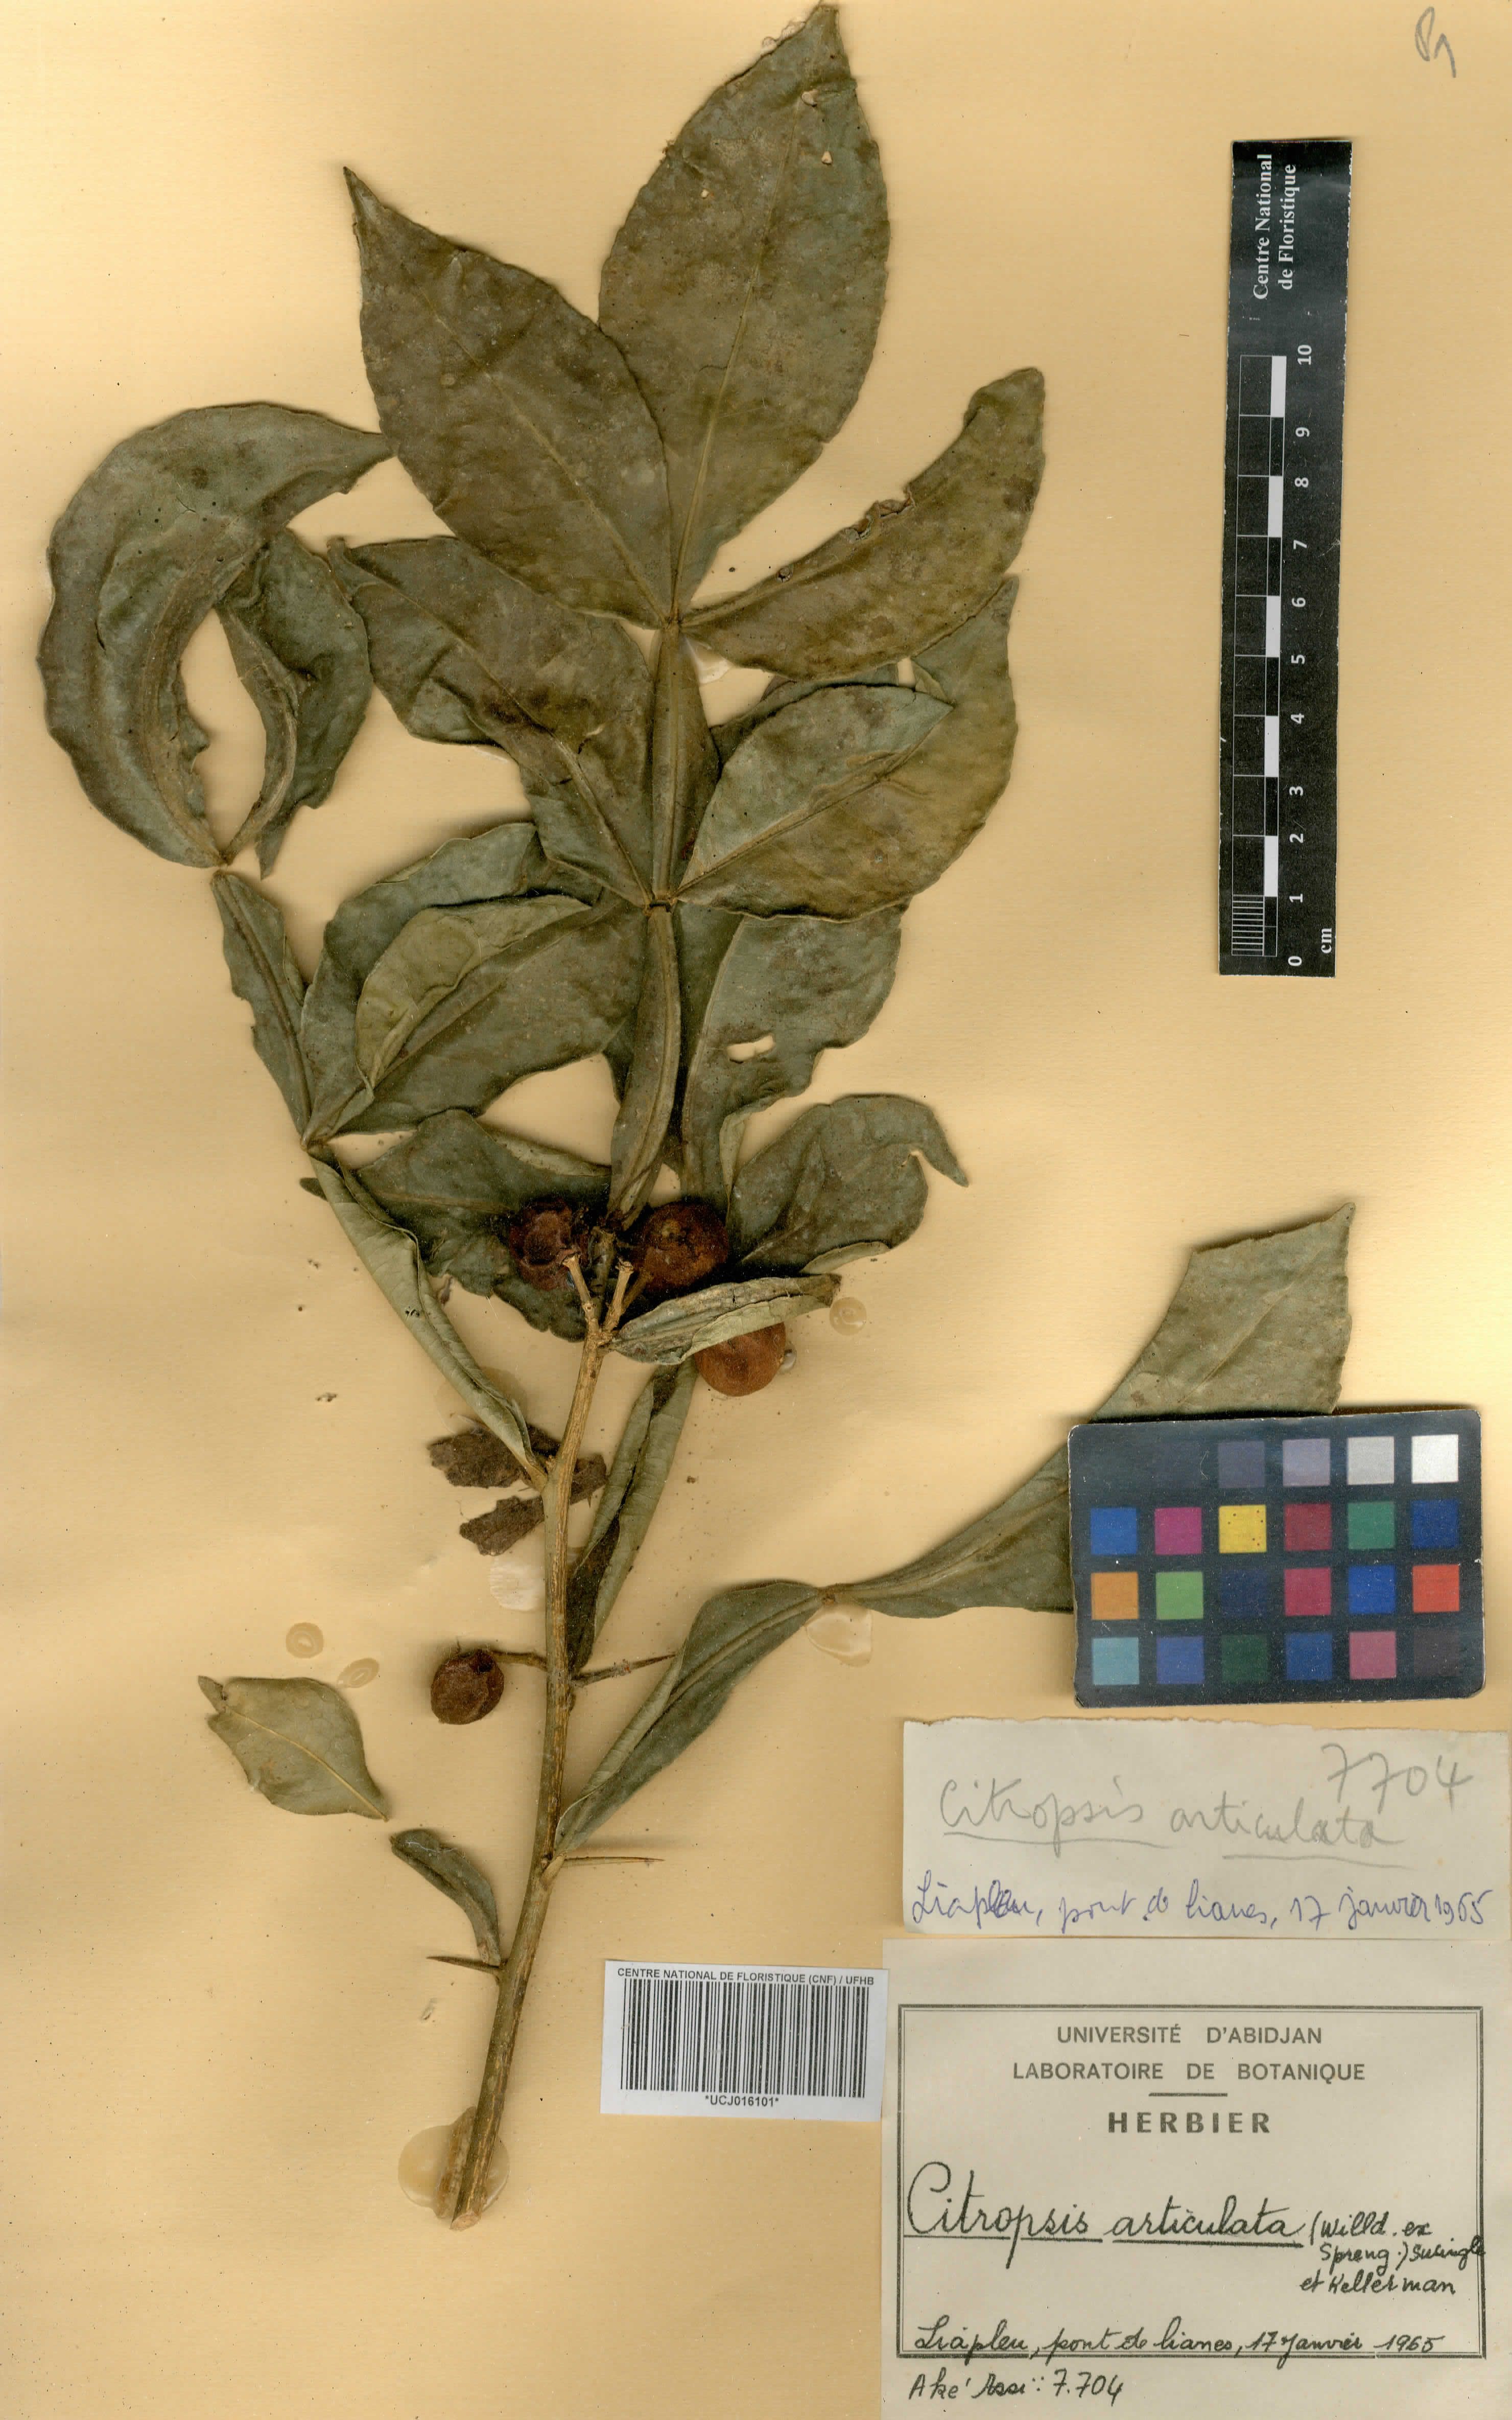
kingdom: Plantae
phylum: Tracheophyta
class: Magnoliopsida
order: Sapindales
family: Rutaceae
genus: Citropsis
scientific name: Citropsis articulata
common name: West african cherry-orange
